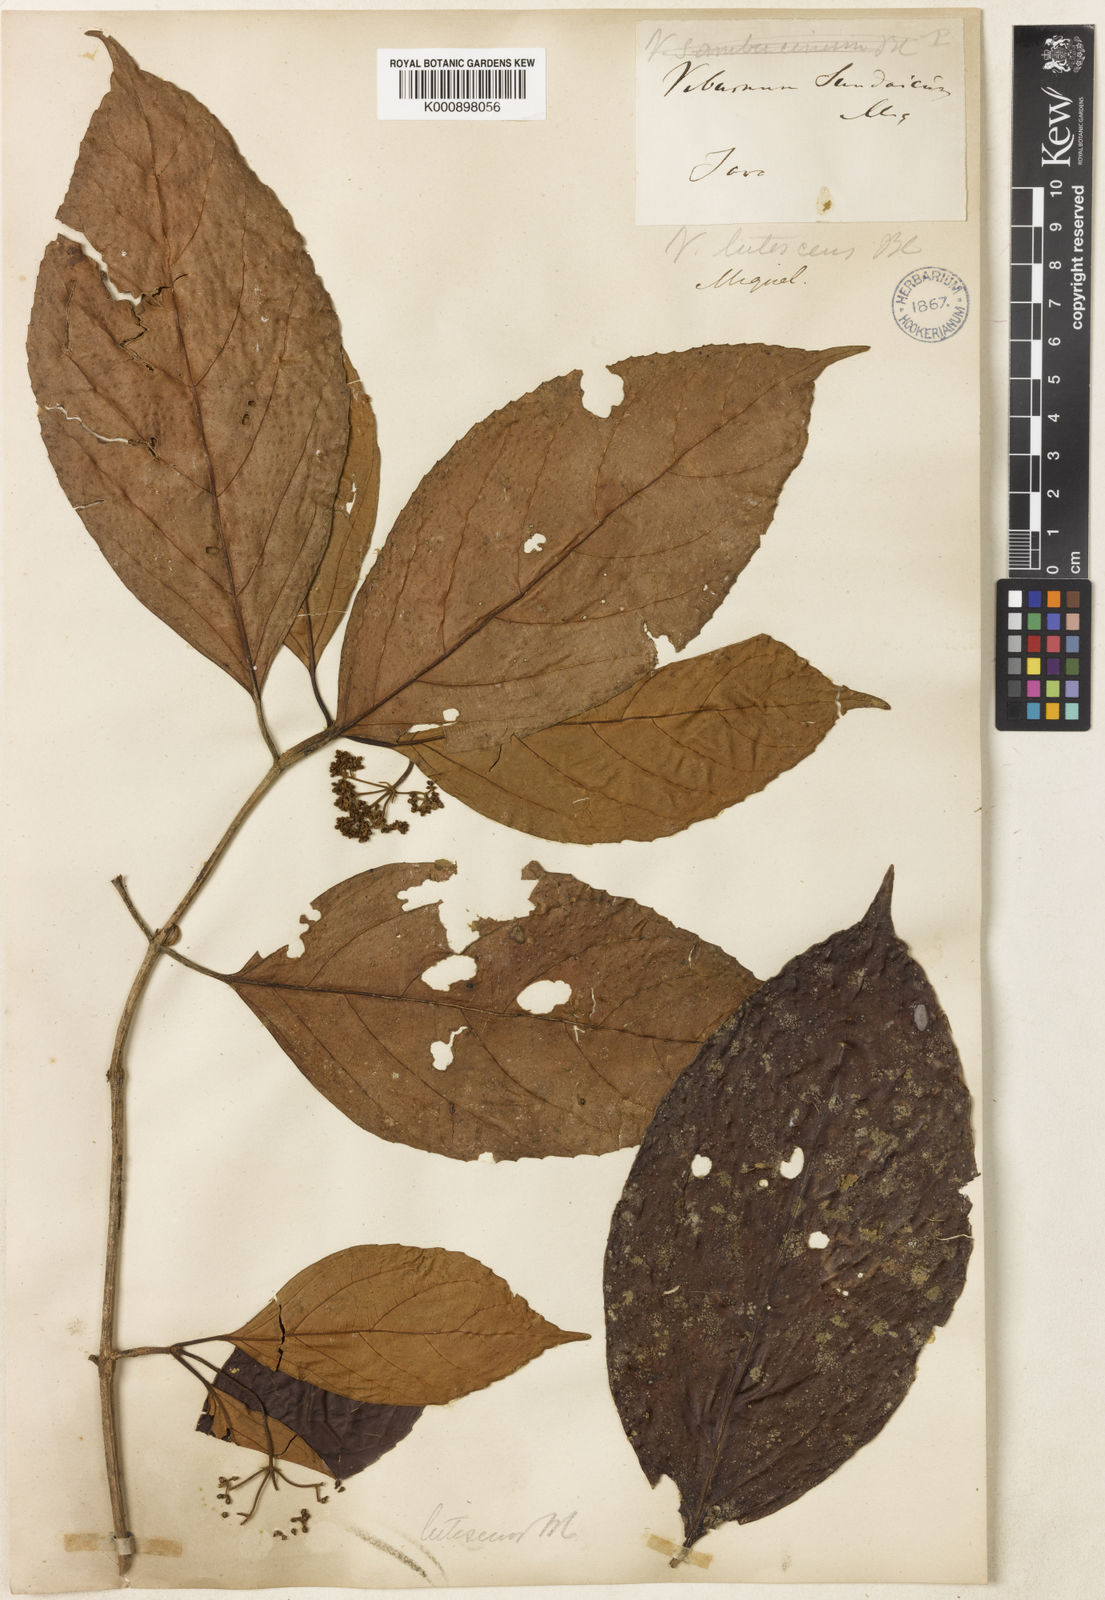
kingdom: Plantae
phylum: Tracheophyta
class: Magnoliopsida
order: Dipsacales
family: Viburnaceae
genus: Viburnum
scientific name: Viburnum lutescens
